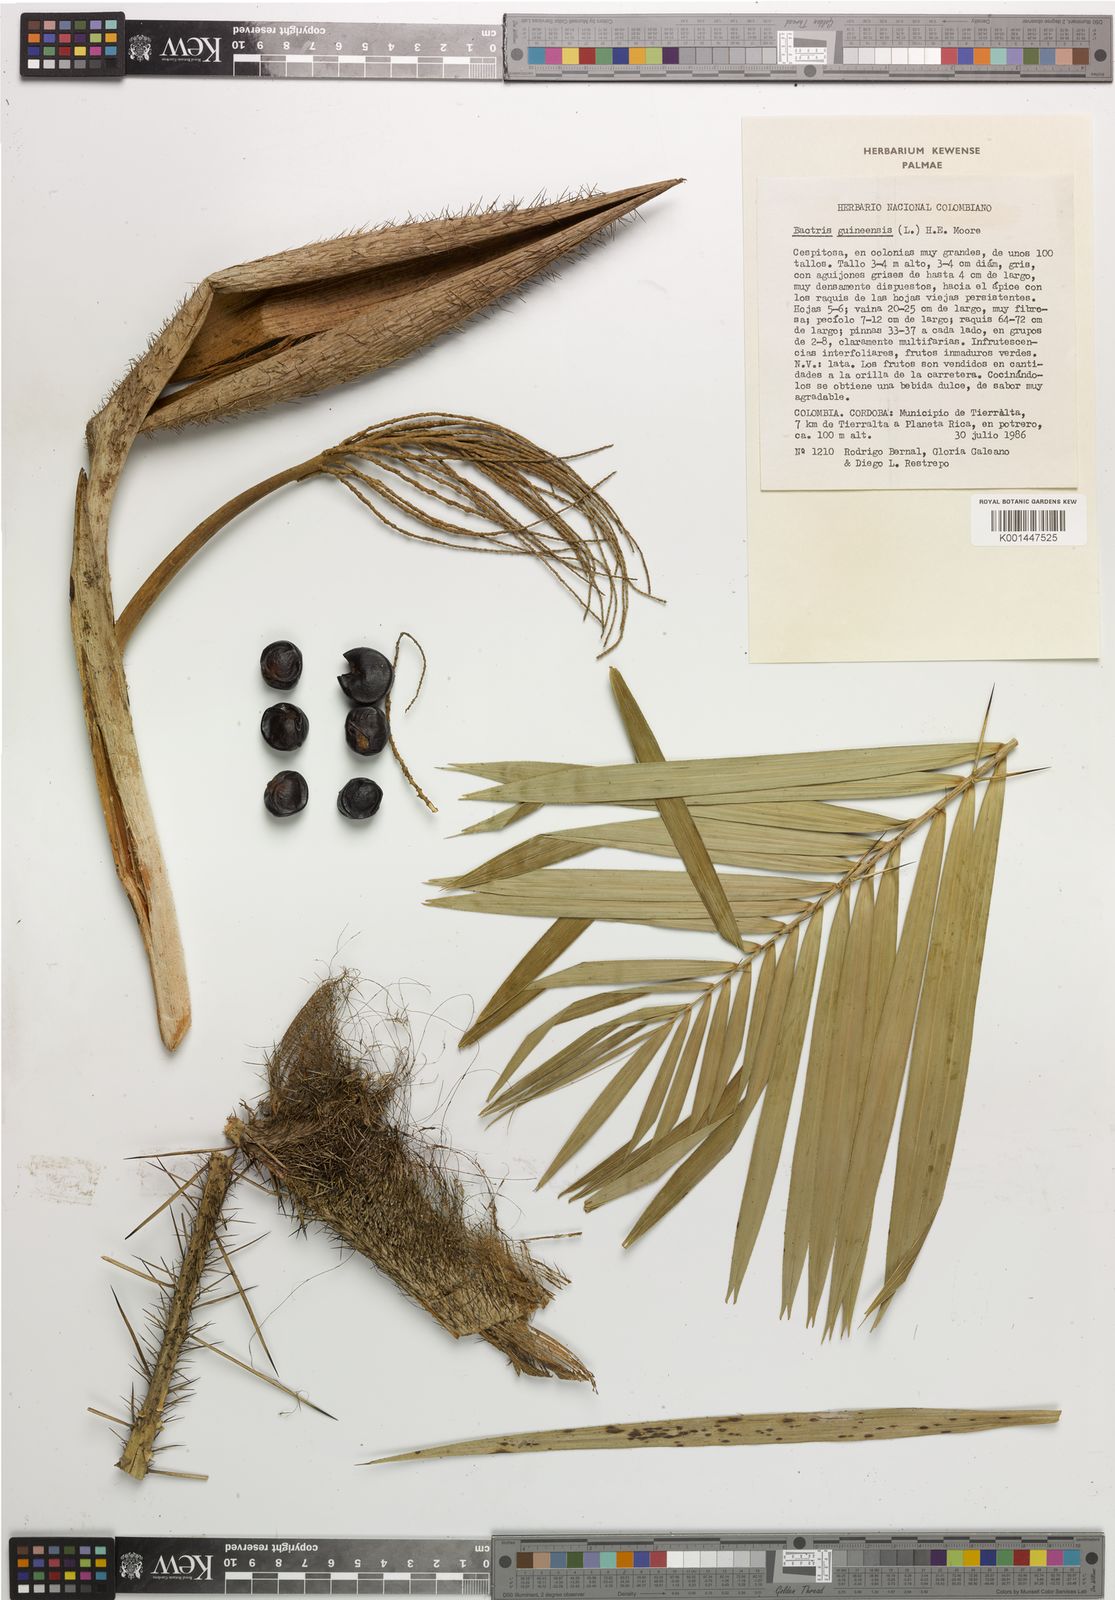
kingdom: Plantae
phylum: Tracheophyta
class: Liliopsida
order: Arecales
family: Arecaceae
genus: Bactris
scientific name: Bactris guineensis
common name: Tobago cane
